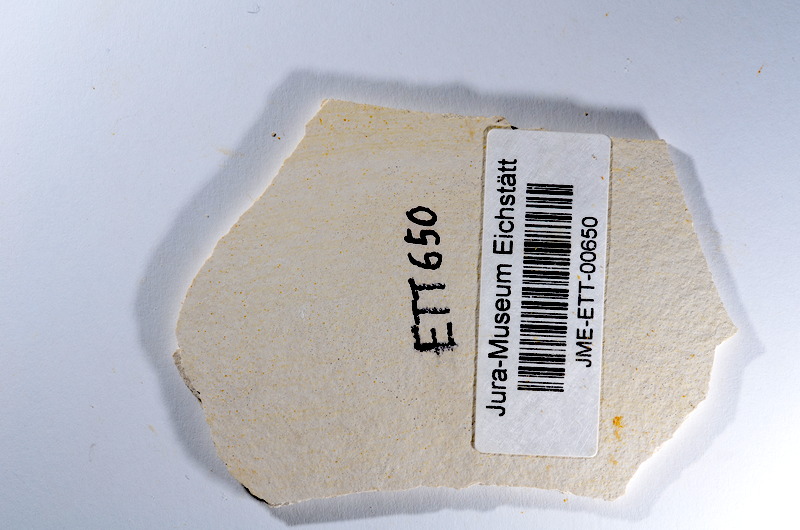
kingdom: Animalia
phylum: Chordata
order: Salmoniformes
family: Orthogonikleithridae
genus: Orthogonikleithrus
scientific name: Orthogonikleithrus hoelli
